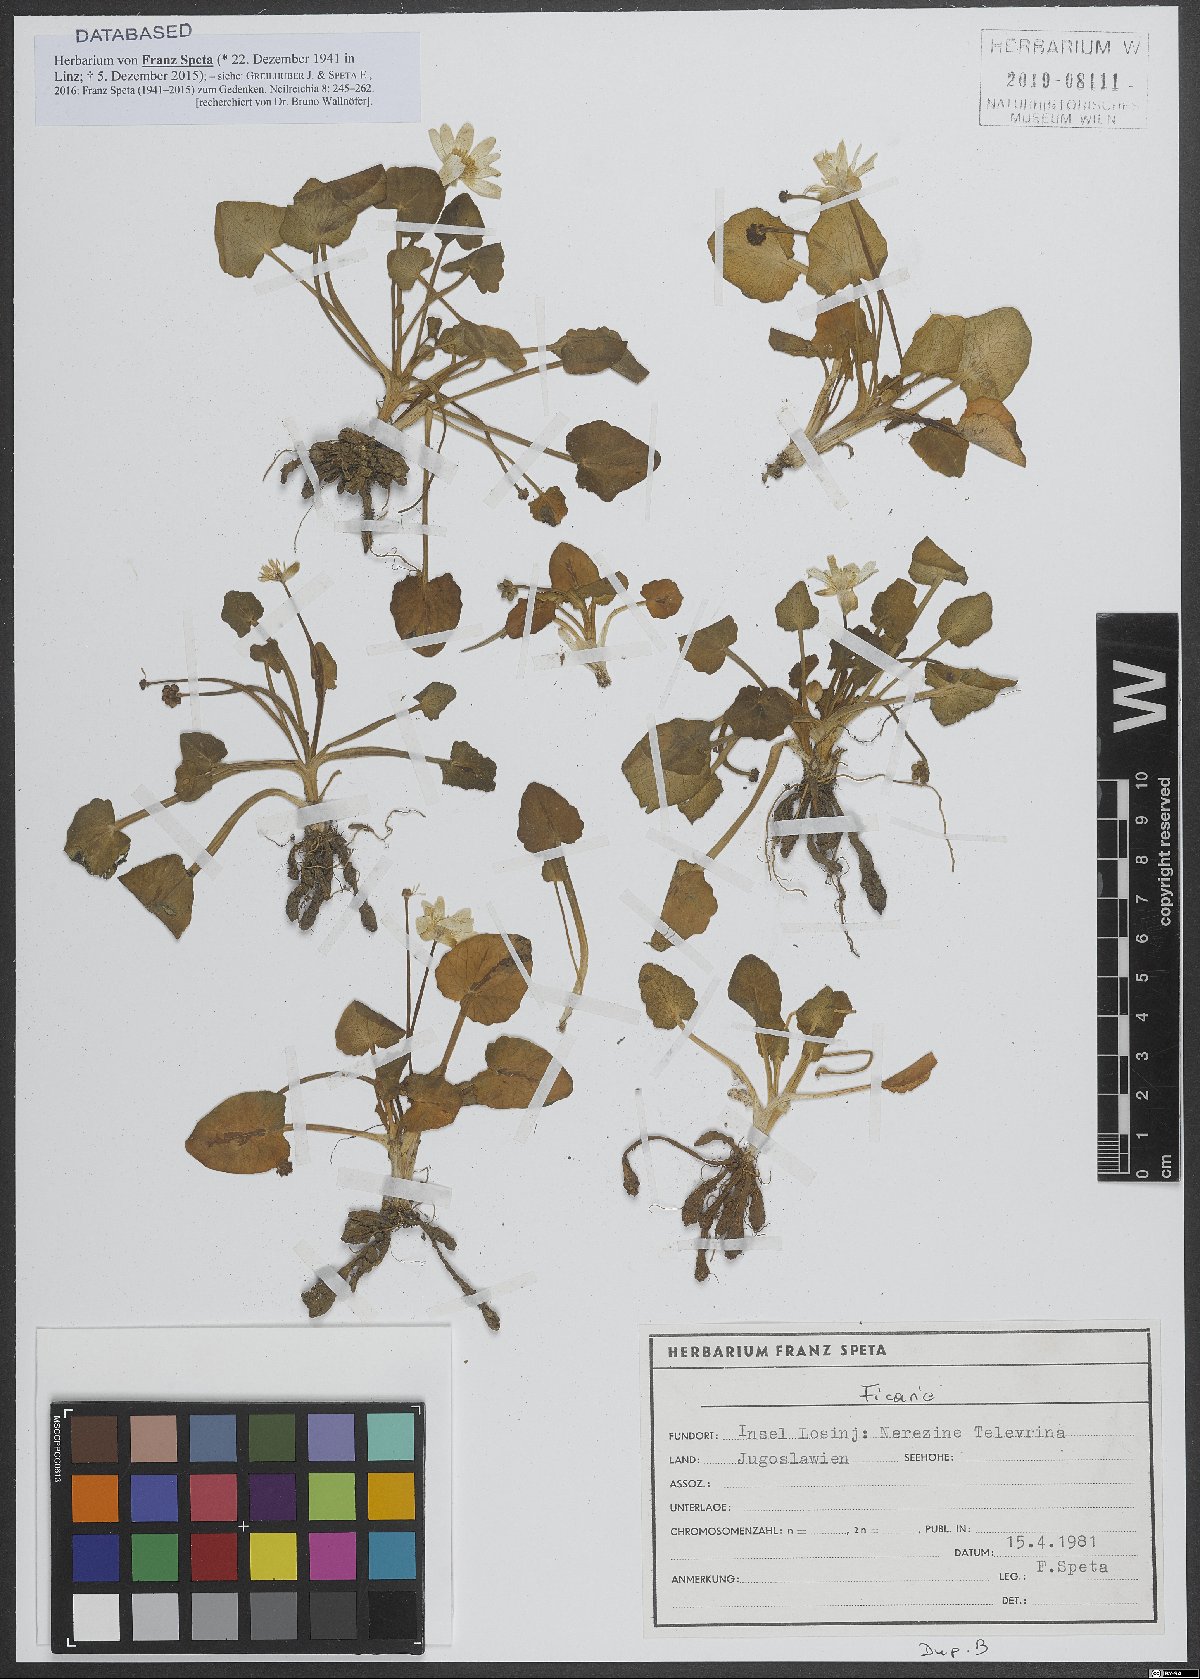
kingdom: Plantae
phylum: Tracheophyta
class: Magnoliopsida
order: Ranunculales
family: Ranunculaceae
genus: Ficaria
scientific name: Ficaria
